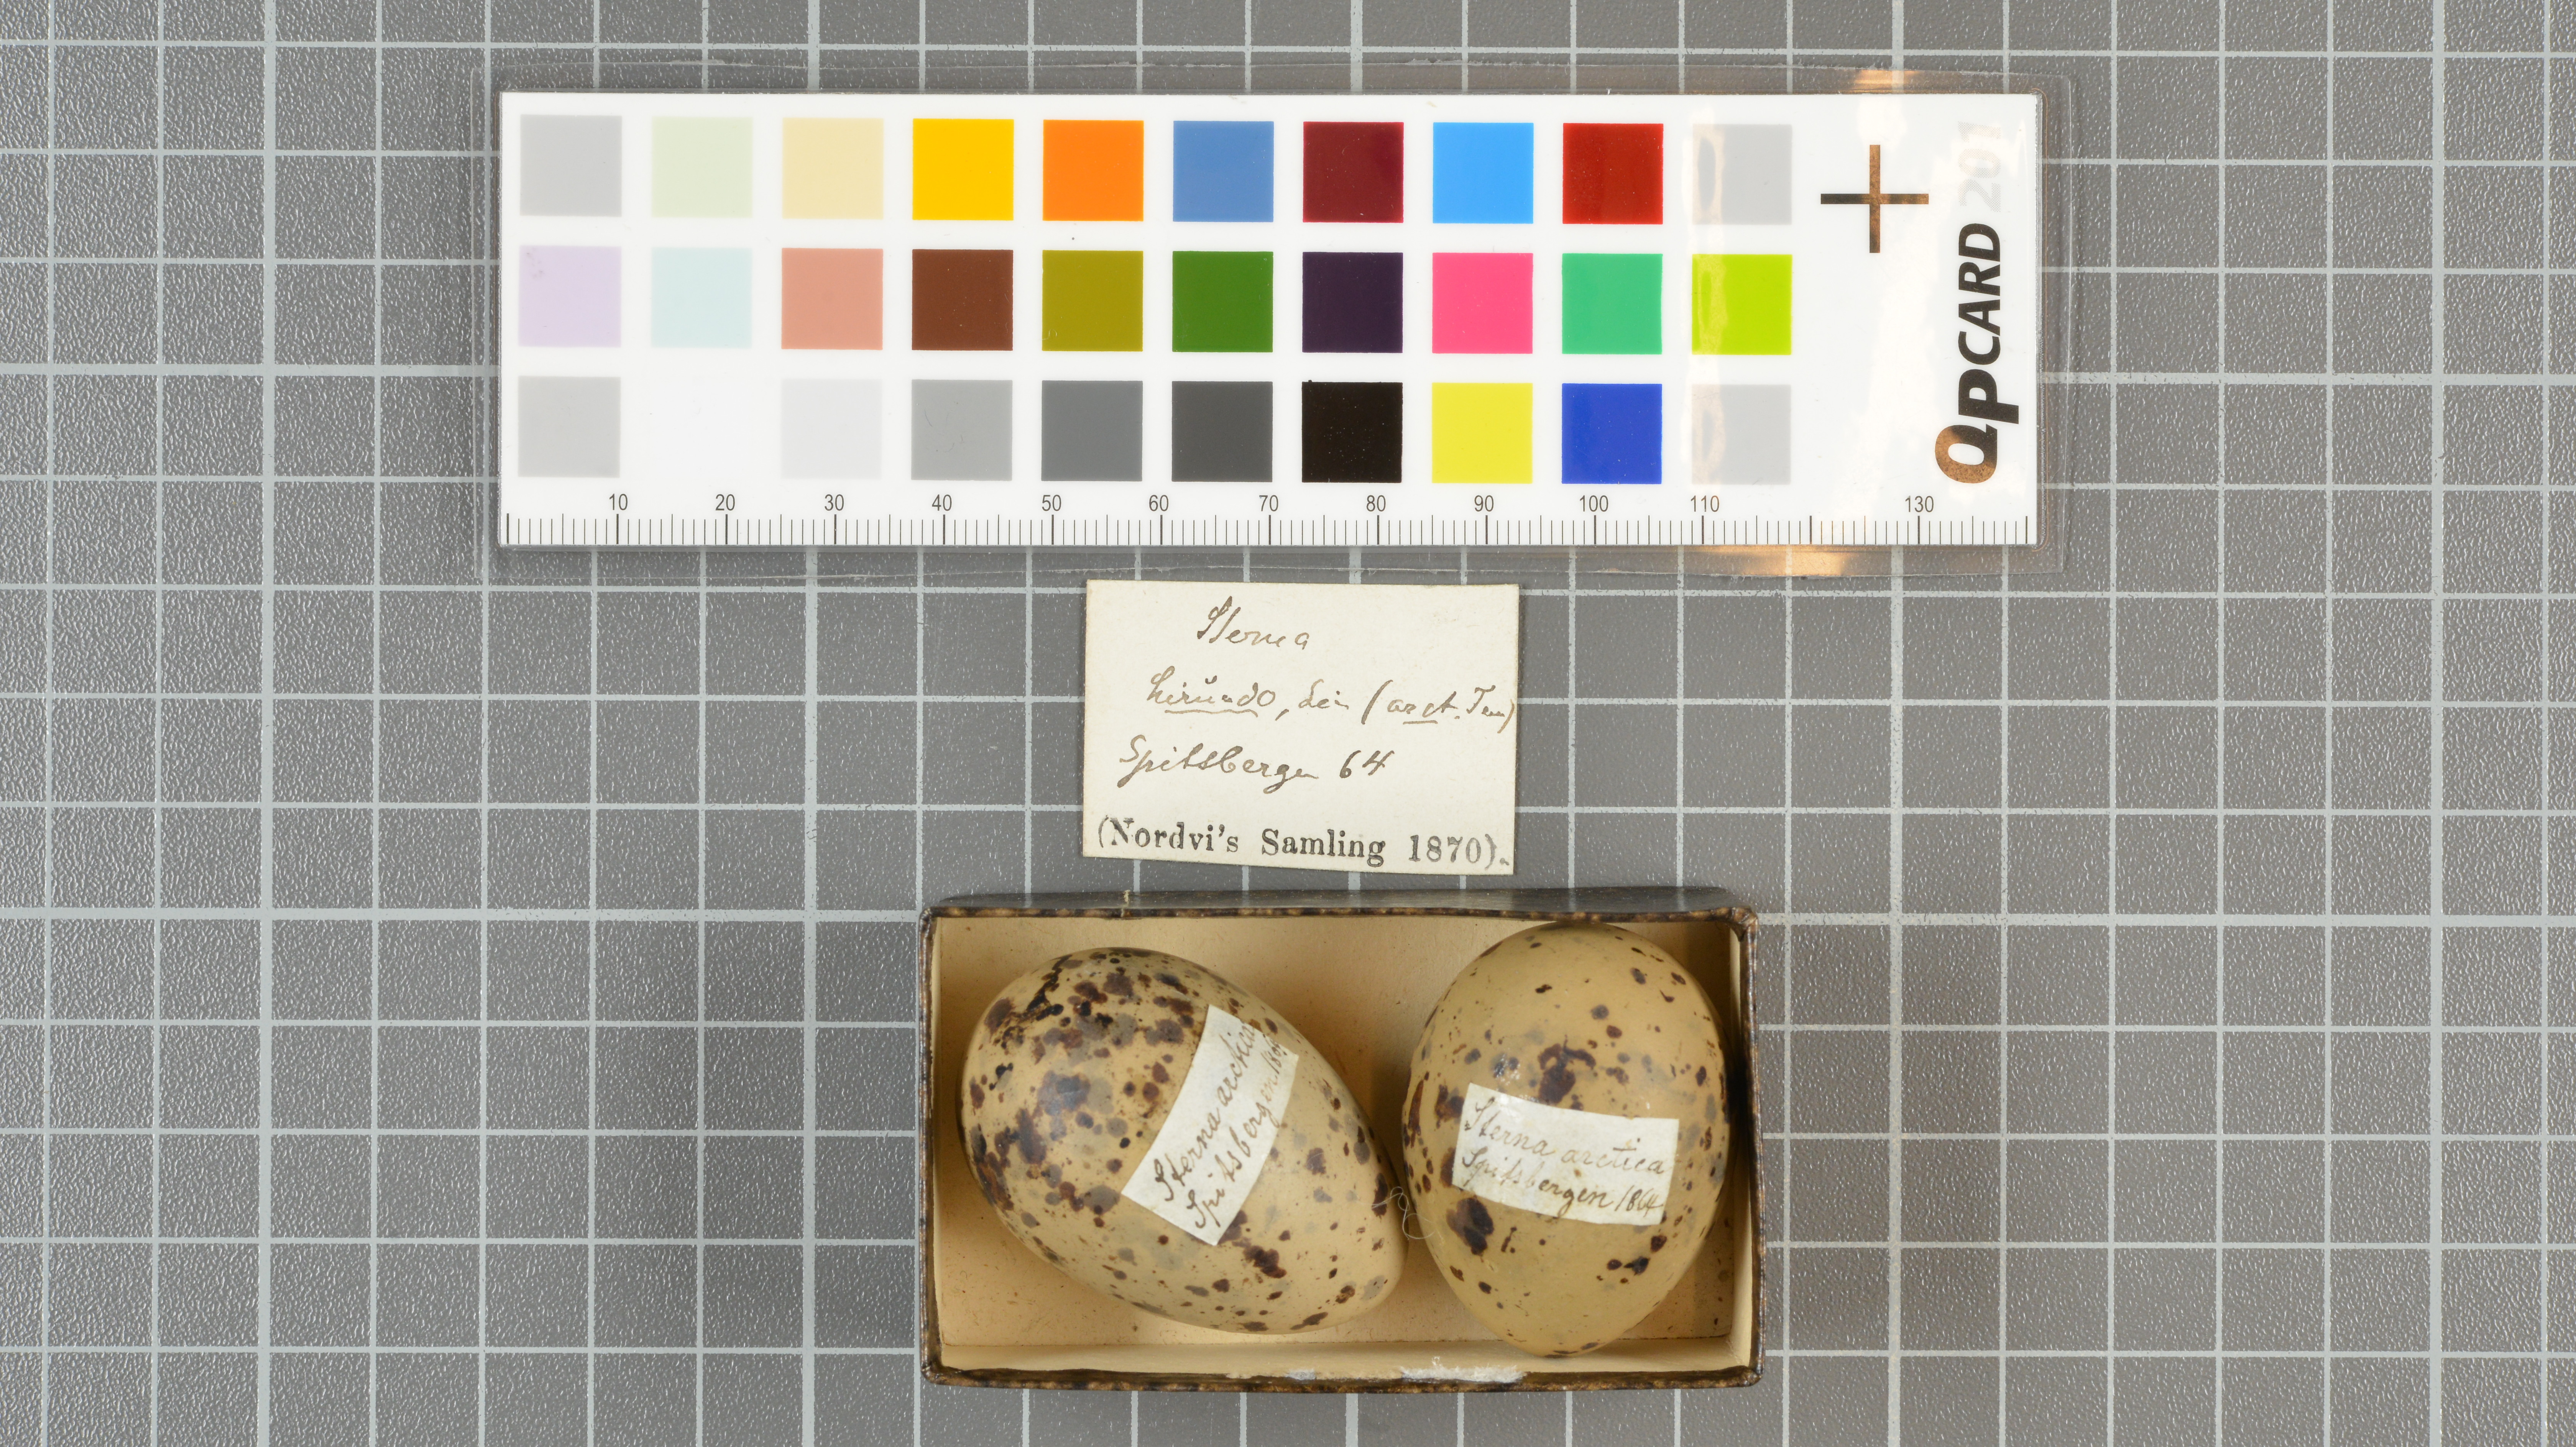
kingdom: Animalia
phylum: Chordata
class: Aves
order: Charadriiformes
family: Laridae
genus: Sterna
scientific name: Sterna hirundo
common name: Common tern
